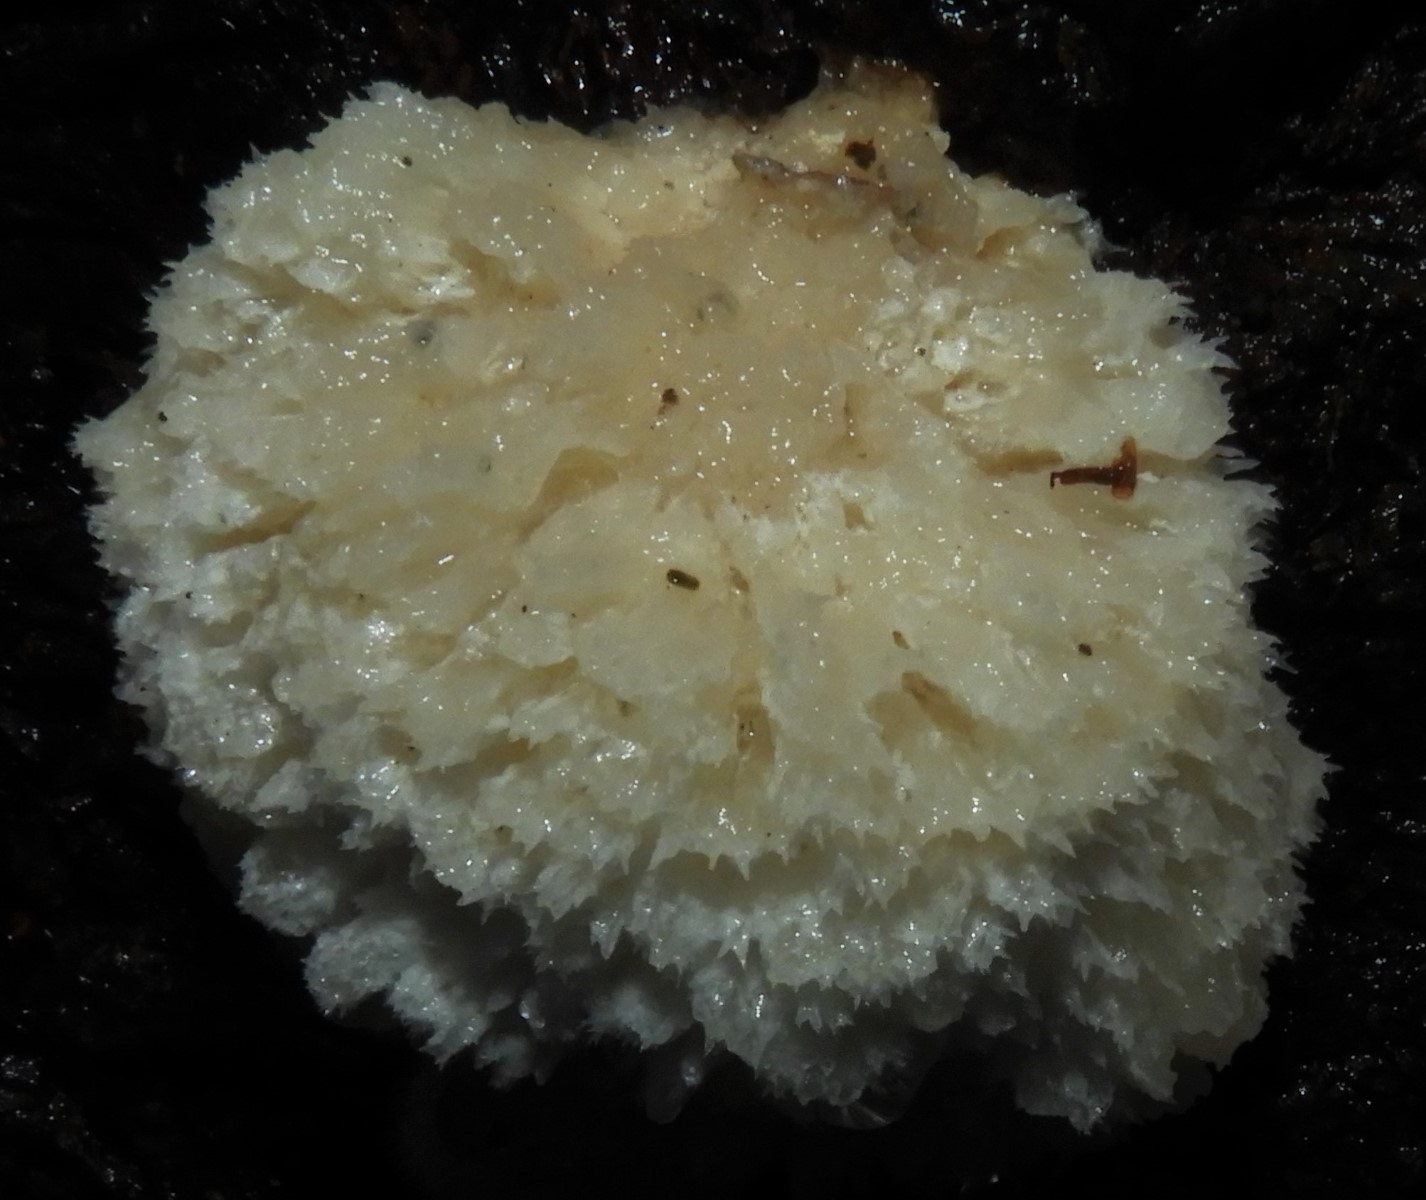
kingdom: Fungi
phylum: Basidiomycota
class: Agaricomycetes
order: Polyporales
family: Dacryobolaceae
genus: Postia
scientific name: Postia ptychogaster
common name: støvende kødporesvamp
